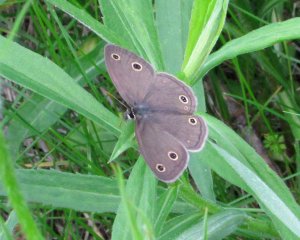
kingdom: Animalia
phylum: Arthropoda
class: Insecta
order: Lepidoptera
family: Nymphalidae
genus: Euptychia
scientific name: Euptychia cymela
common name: Little Wood Satyr
